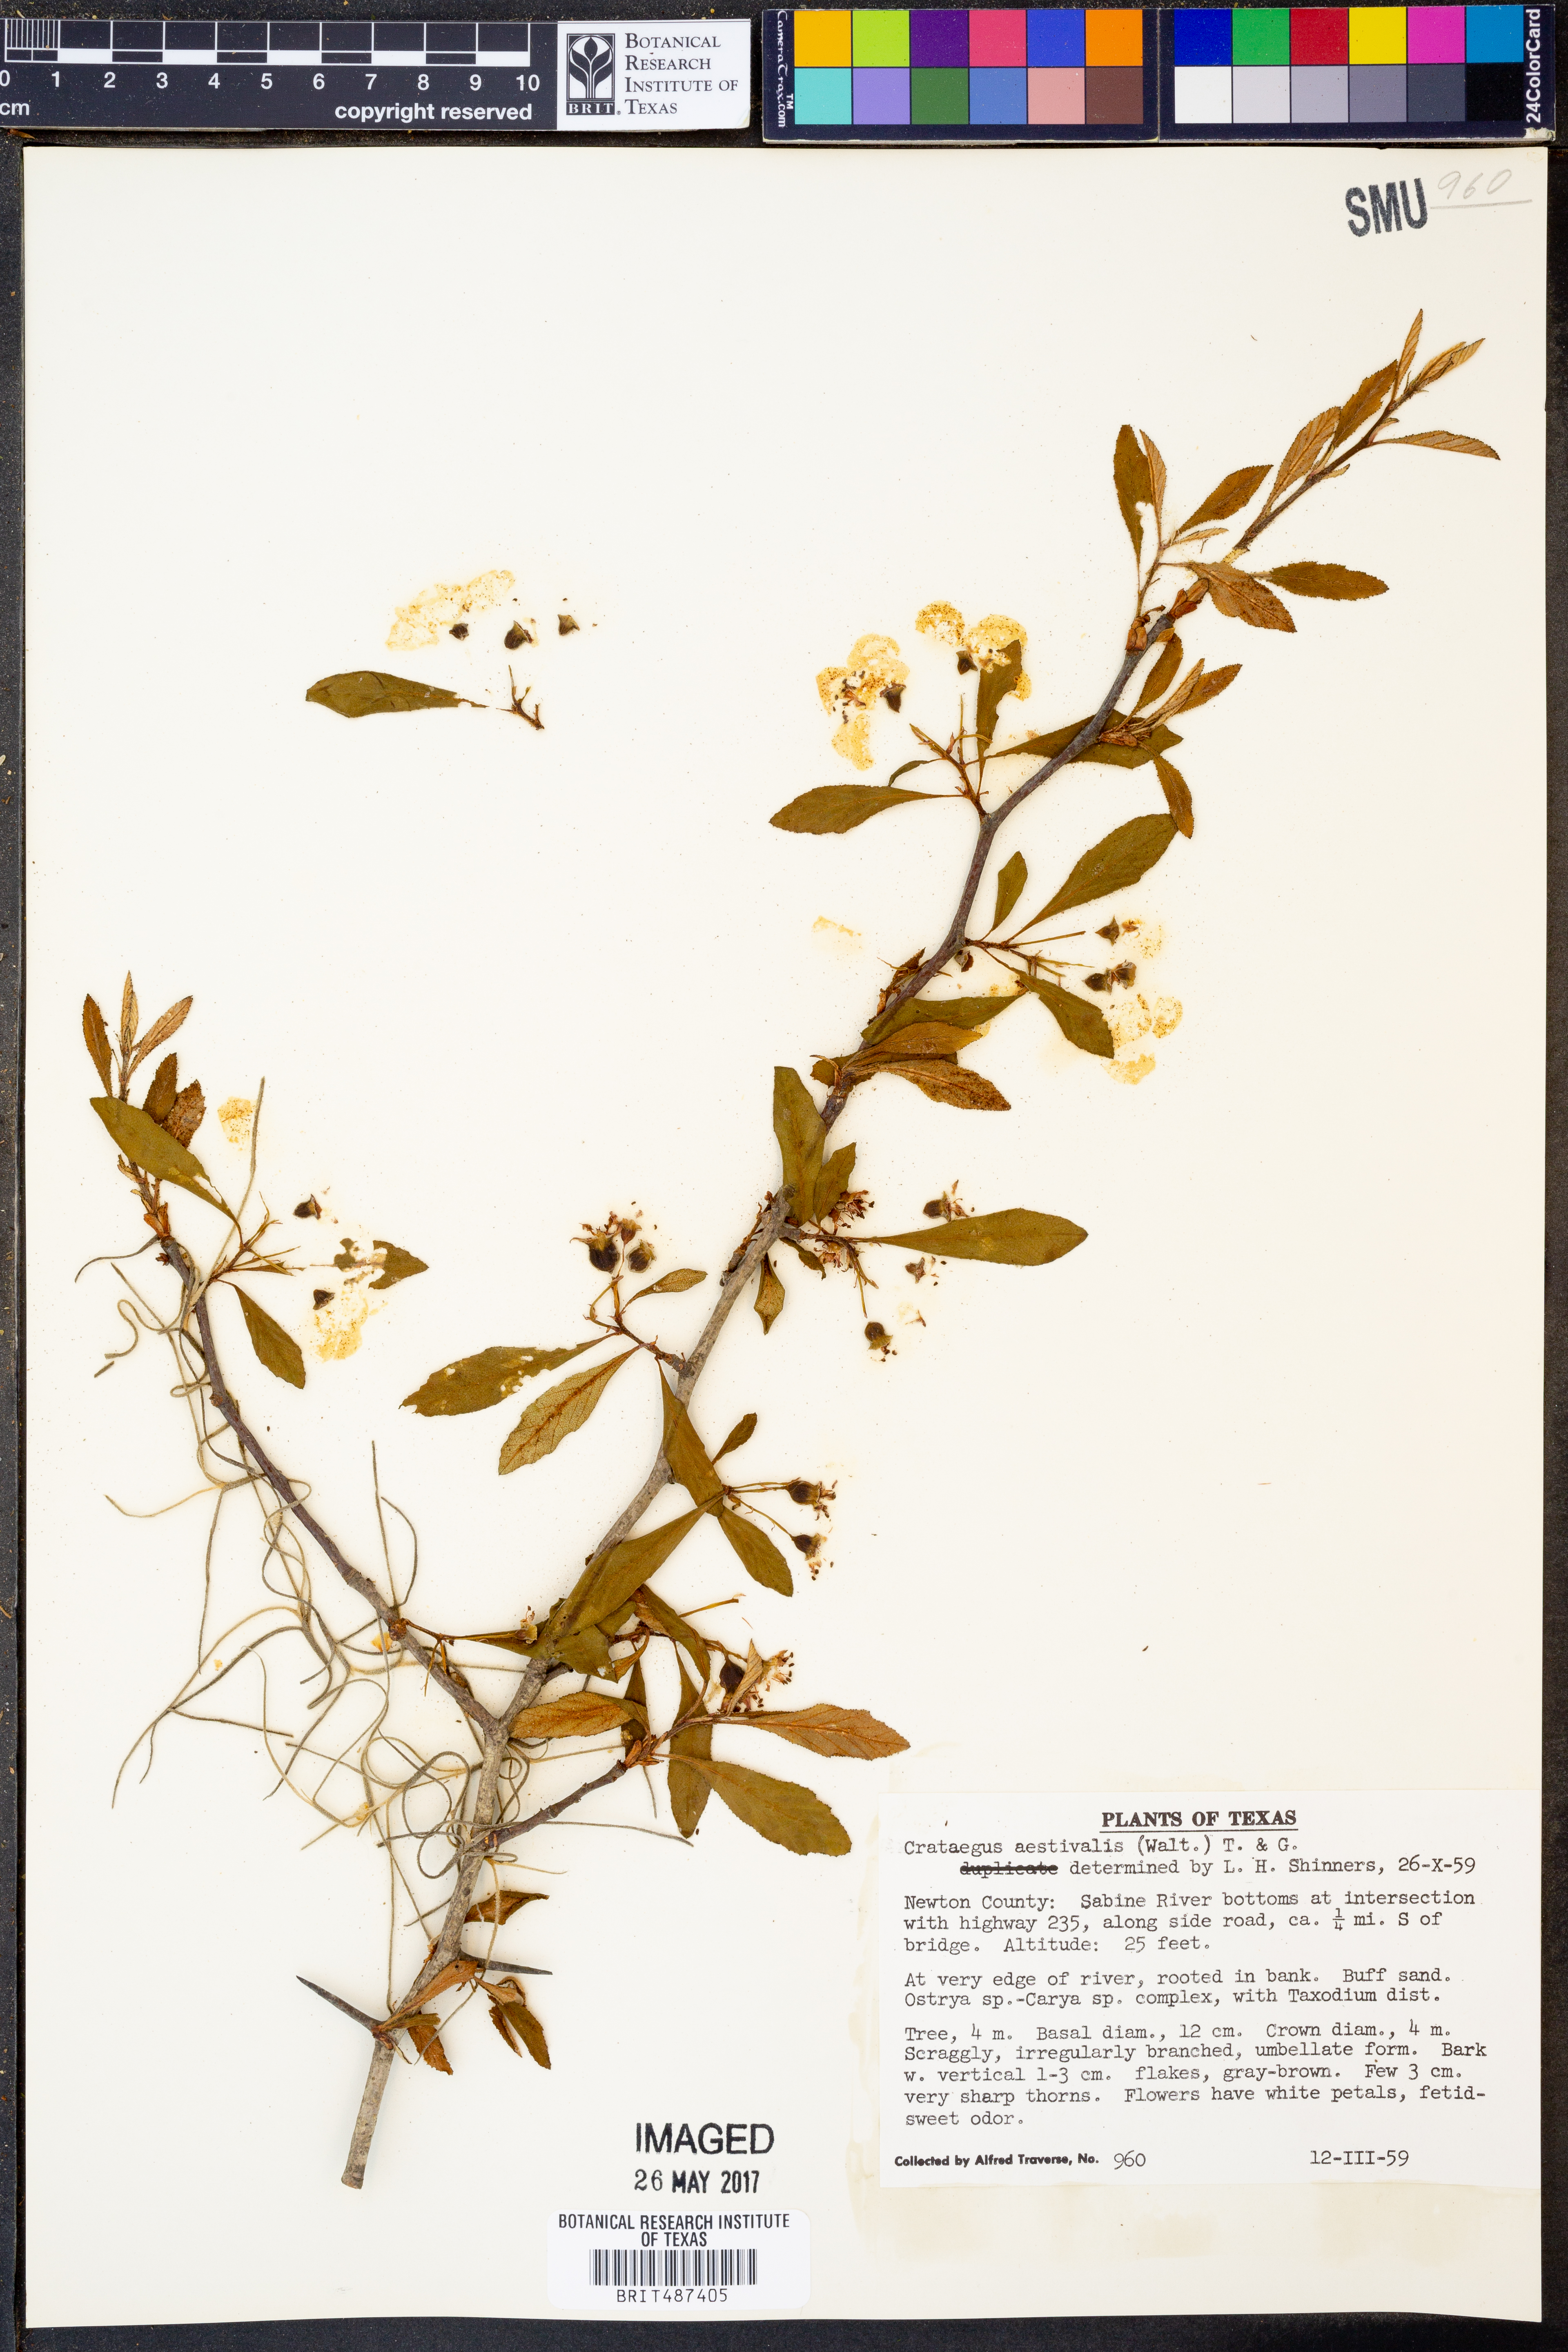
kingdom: Plantae
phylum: Tracheophyta
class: Magnoliopsida
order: Rosales
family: Rosaceae
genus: Crataegus
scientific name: Crataegus aestivalis
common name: Mayhaw
